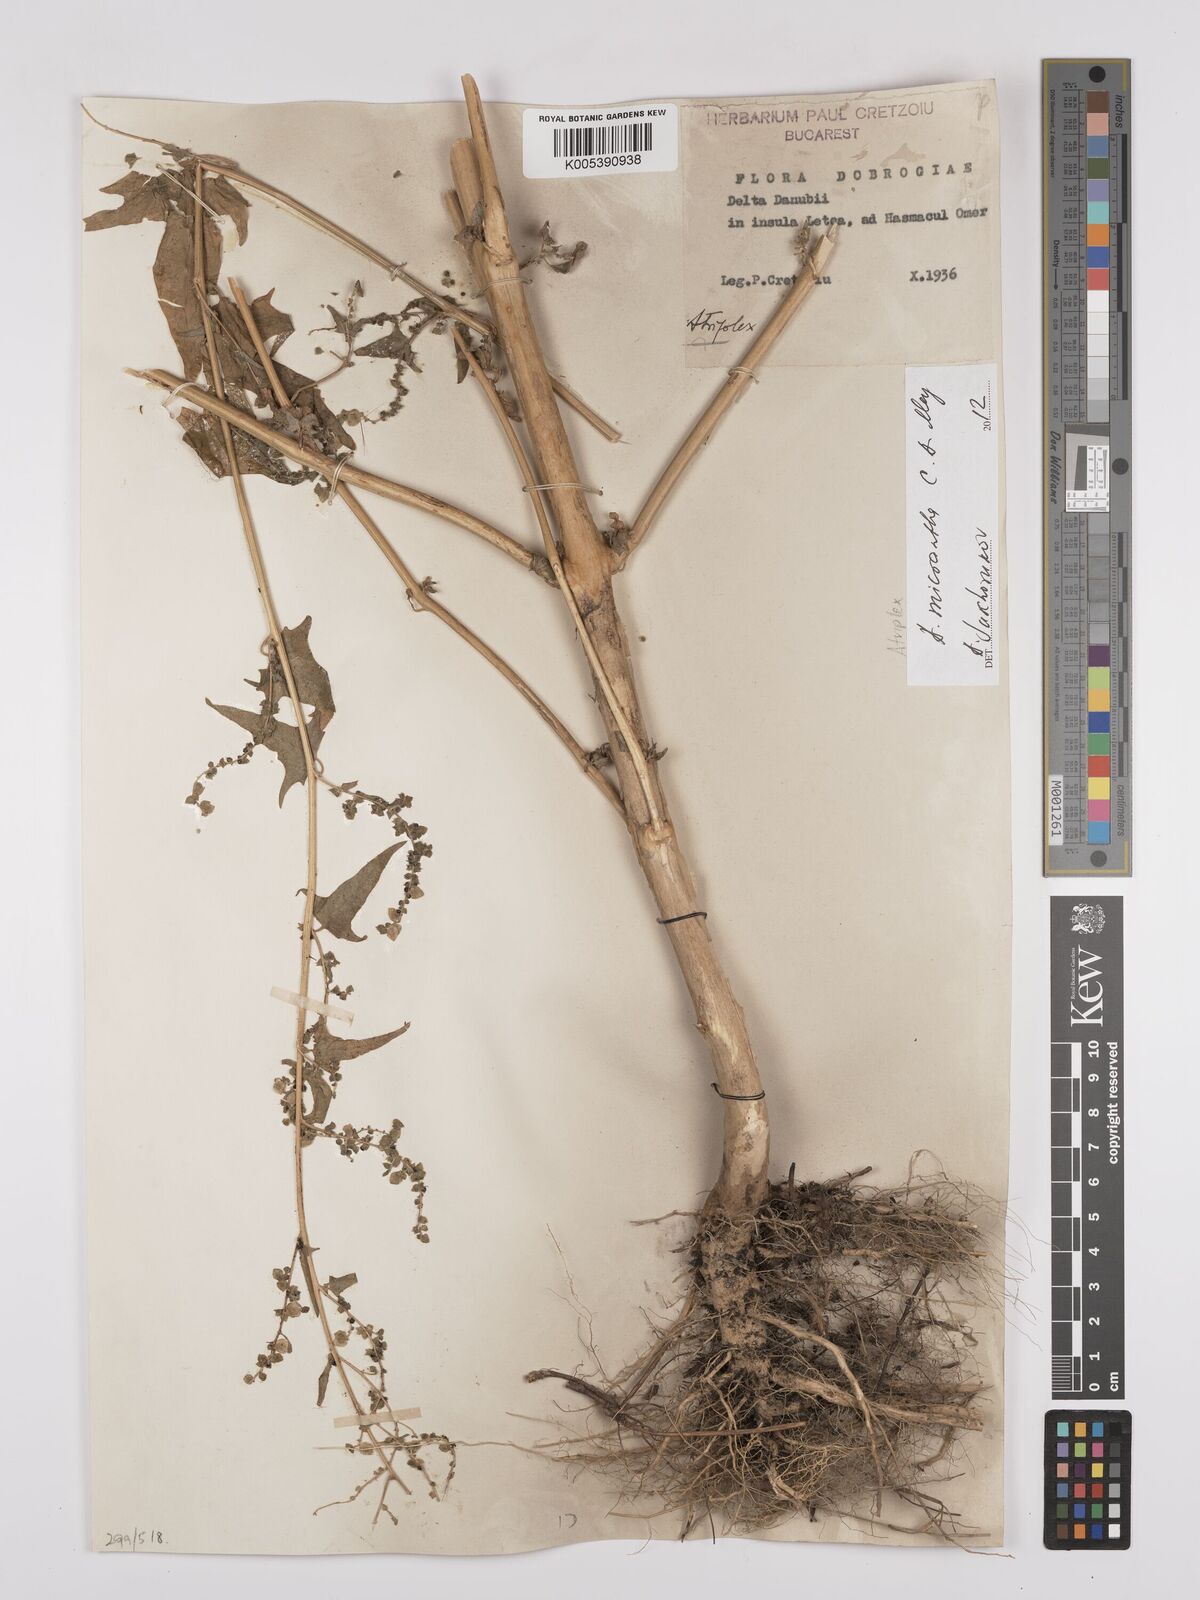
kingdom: Plantae
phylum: Tracheophyta
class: Magnoliopsida
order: Caryophyllales
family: Amaranthaceae
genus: Atriplex
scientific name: Atriplex micrantha
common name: Twoscale saltbush
